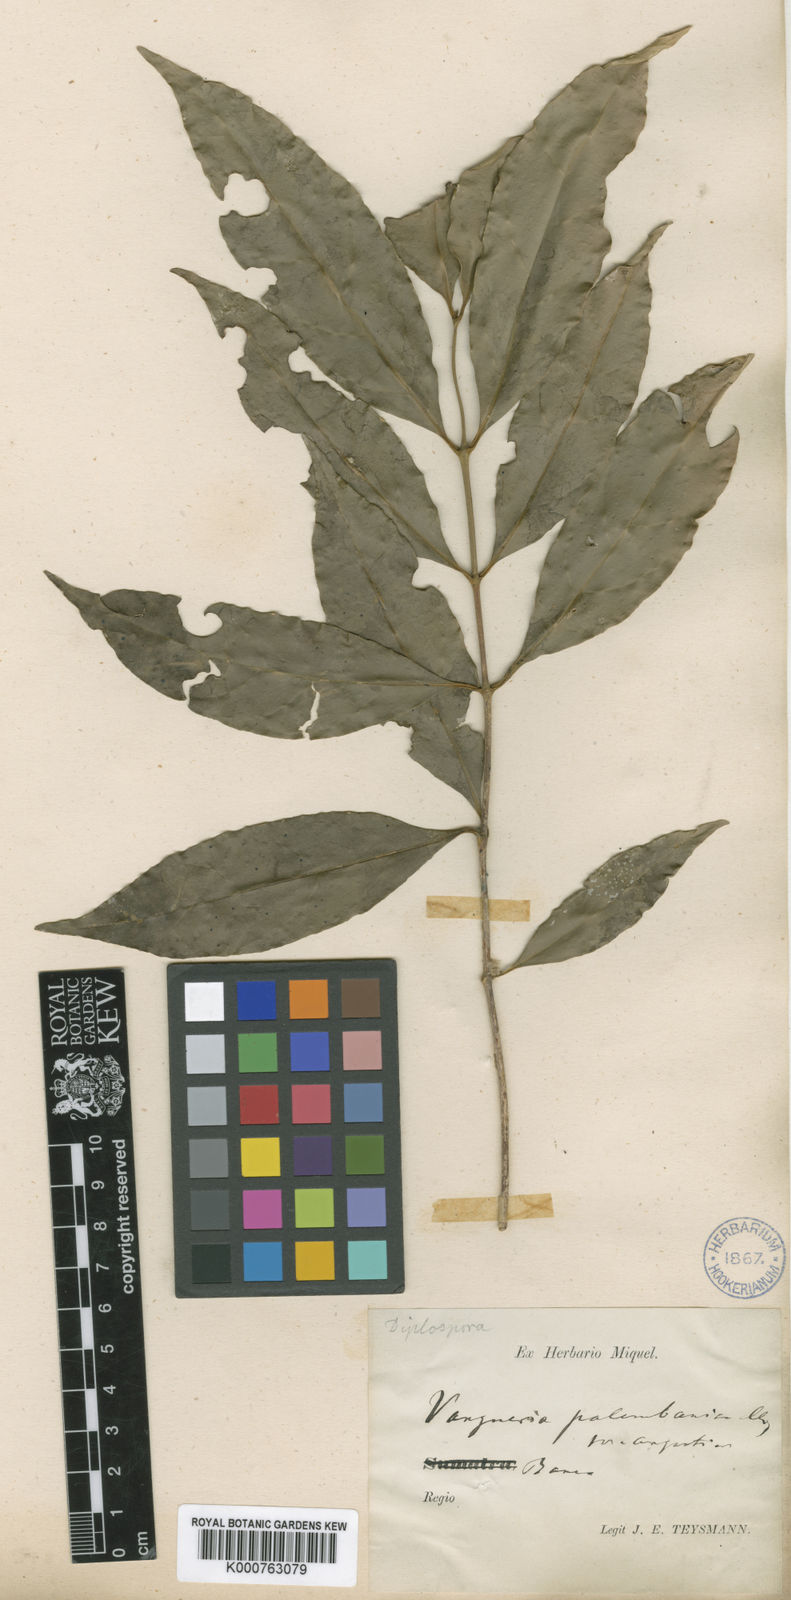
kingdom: Plantae
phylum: Tracheophyta
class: Magnoliopsida
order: Gentianales
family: Rubiaceae
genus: Discospermum
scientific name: Discospermum abnorme
